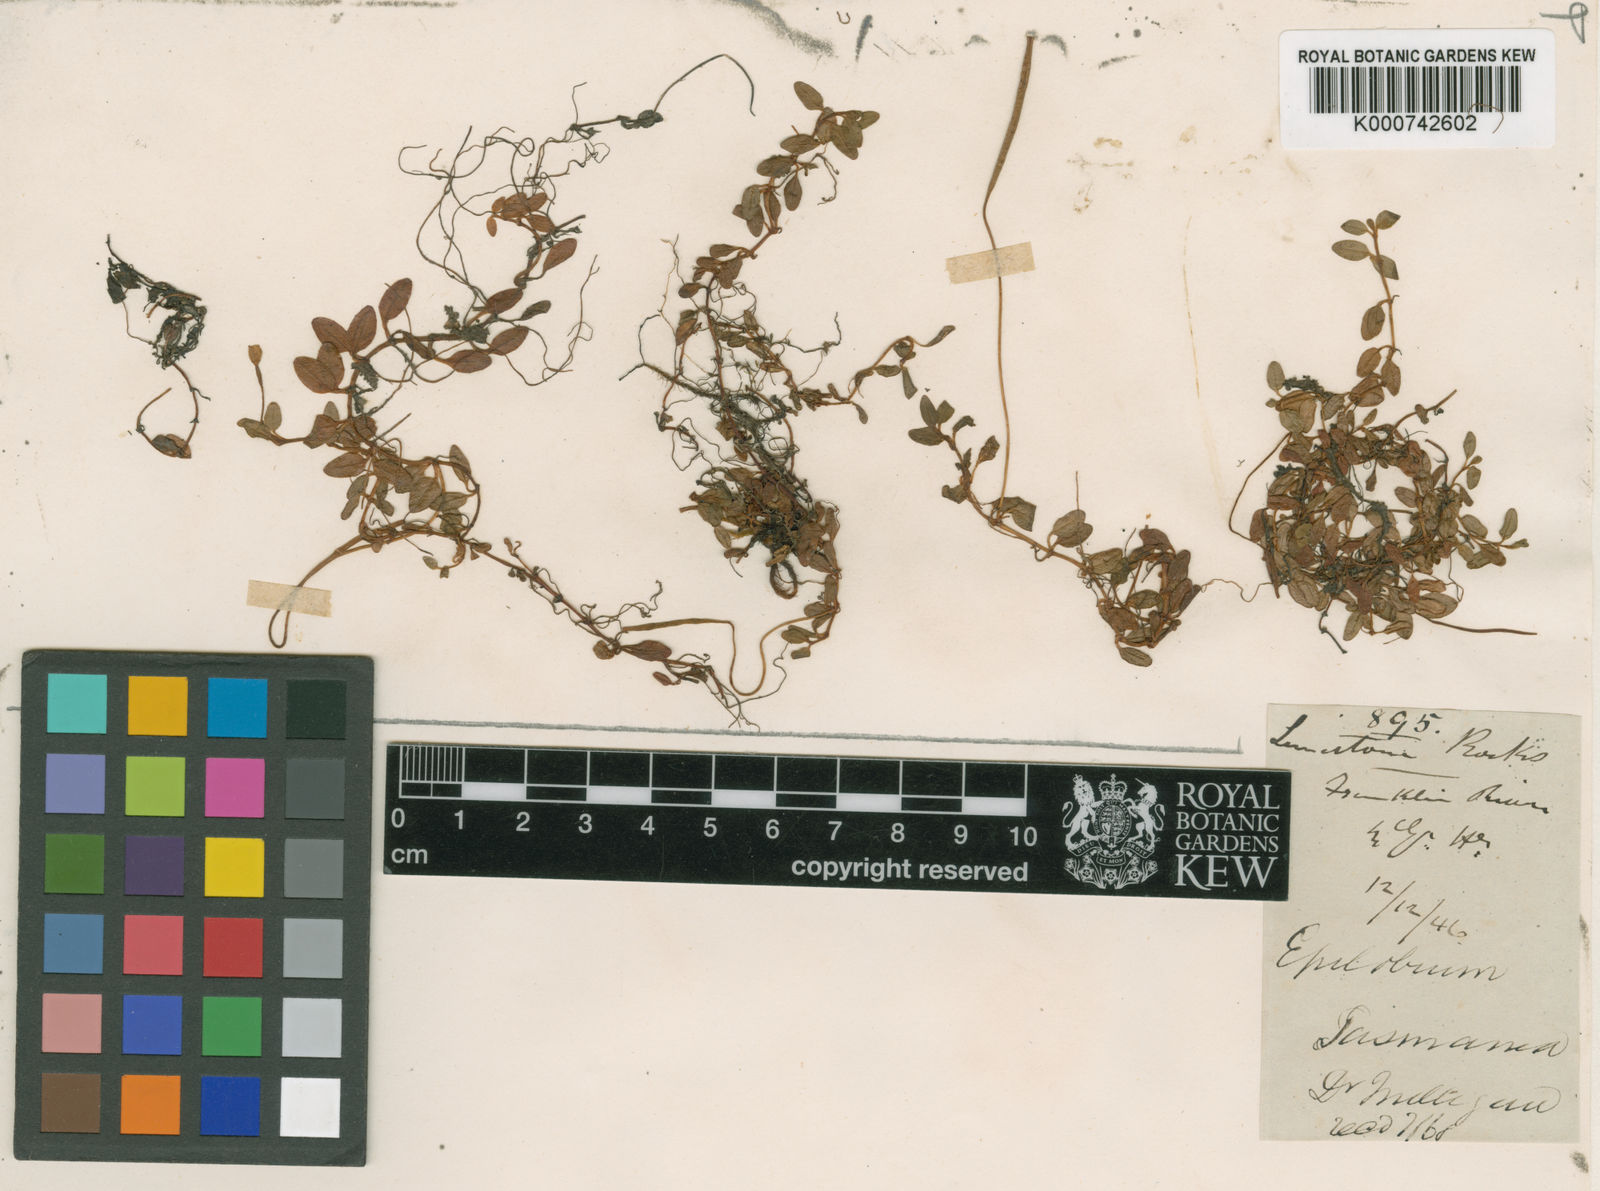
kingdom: Plantae
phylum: Tracheophyta
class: Magnoliopsida
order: Myrtales
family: Onagraceae
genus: Epilobium
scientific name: Epilobium tasmanicum
